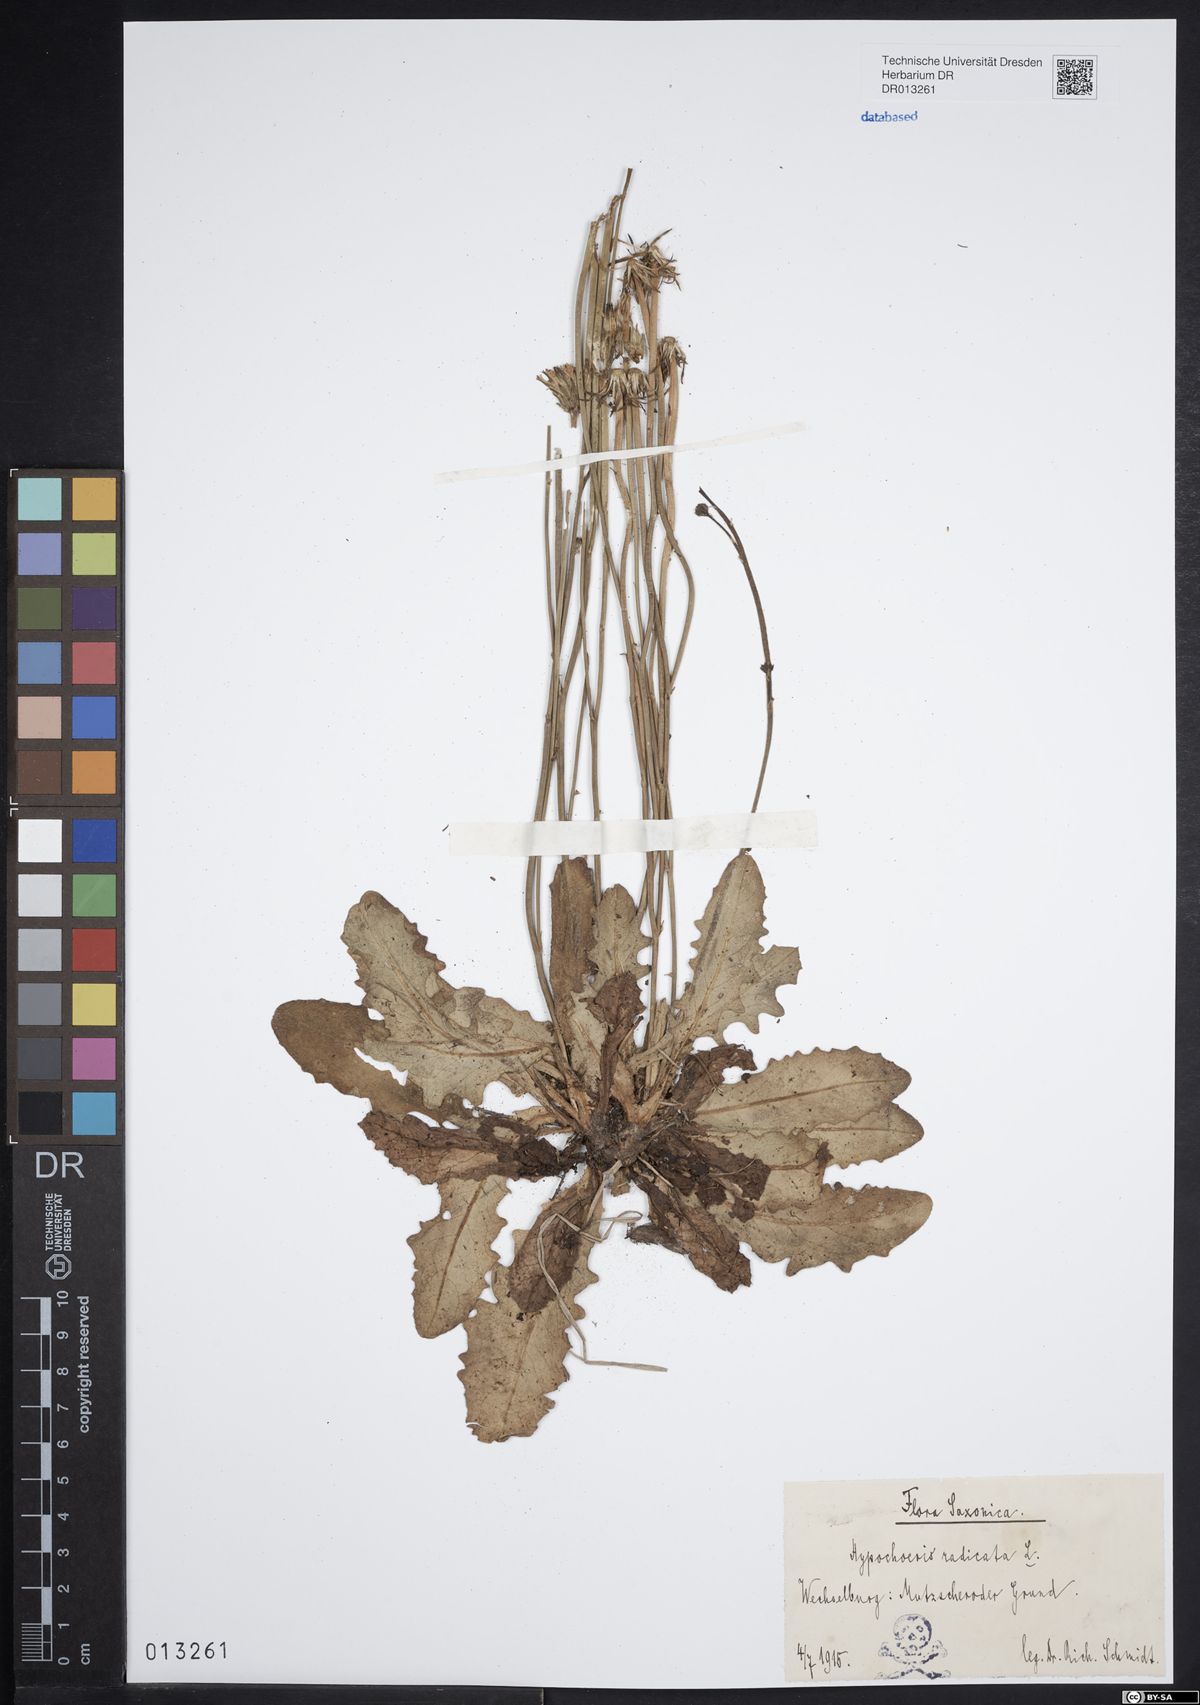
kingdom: Plantae
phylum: Tracheophyta
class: Magnoliopsida
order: Asterales
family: Asteraceae
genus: Hypochaeris
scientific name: Hypochaeris radicata
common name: Flatweed
